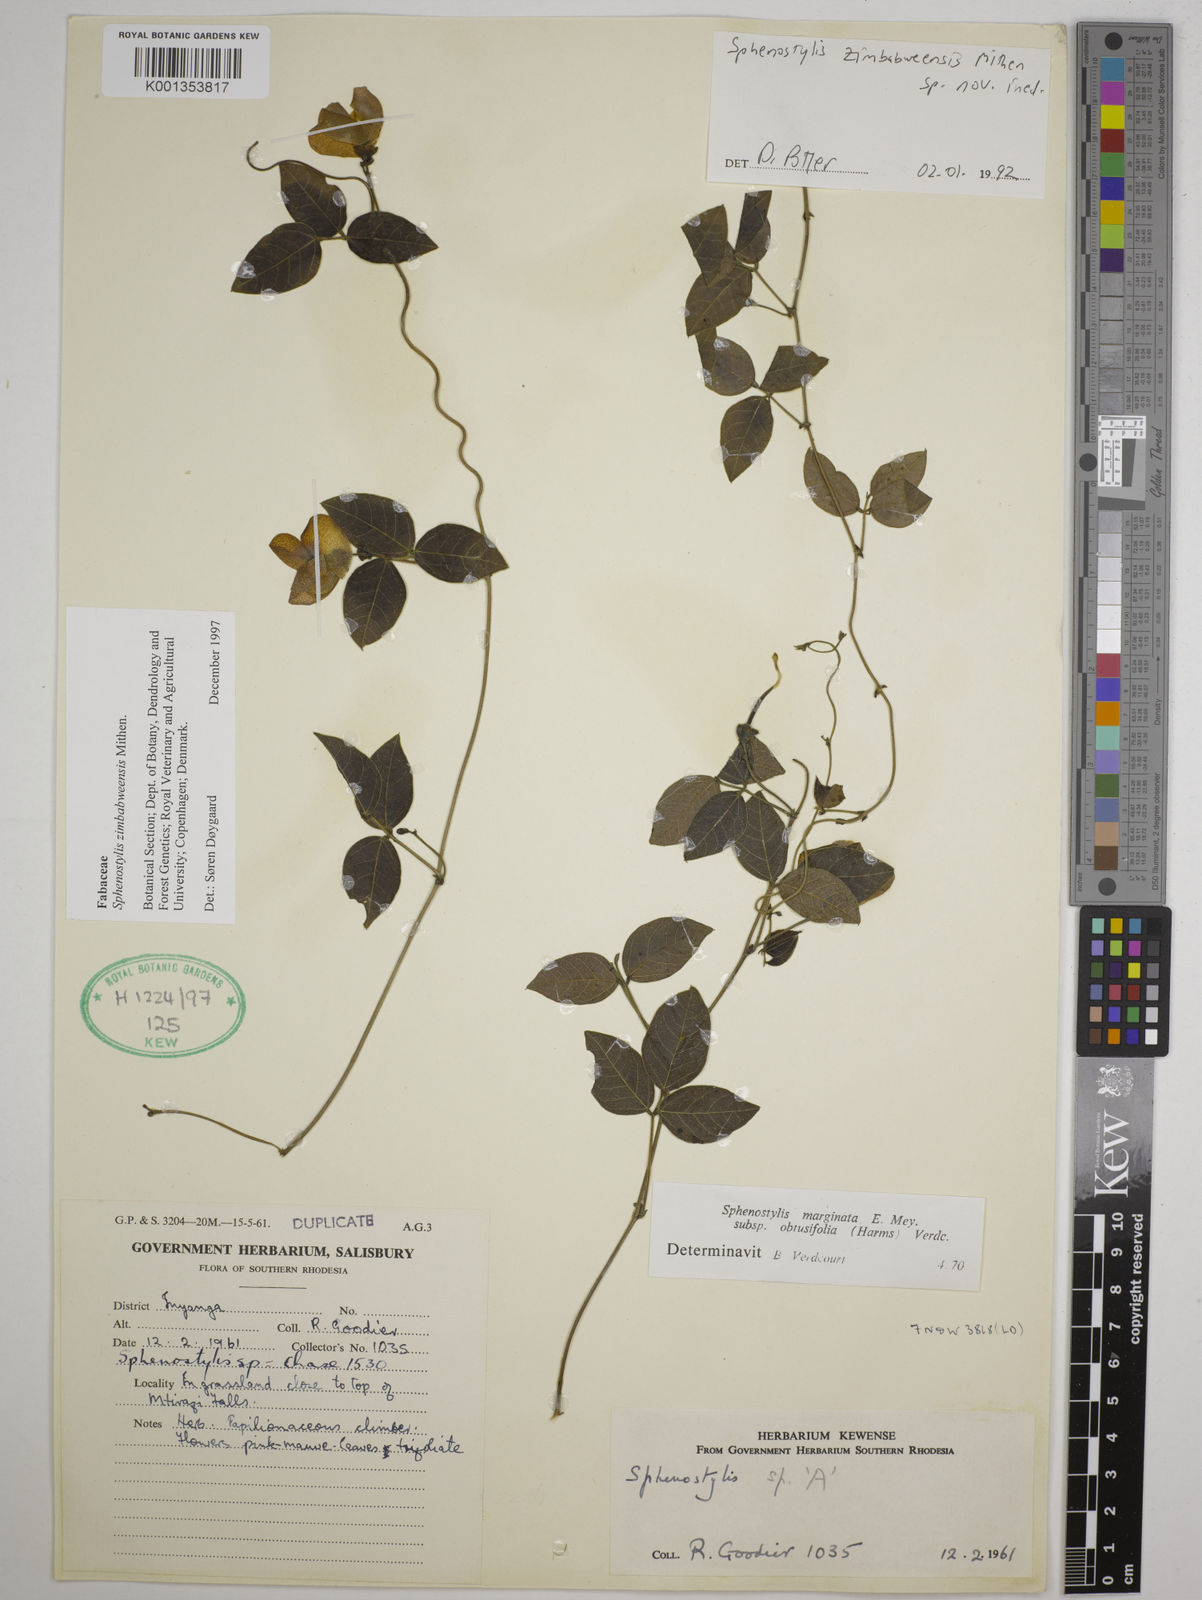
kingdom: Plantae
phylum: Tracheophyta
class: Magnoliopsida
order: Fabales
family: Fabaceae
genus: Sphenostylis
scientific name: Sphenostylis zimbabweensis
